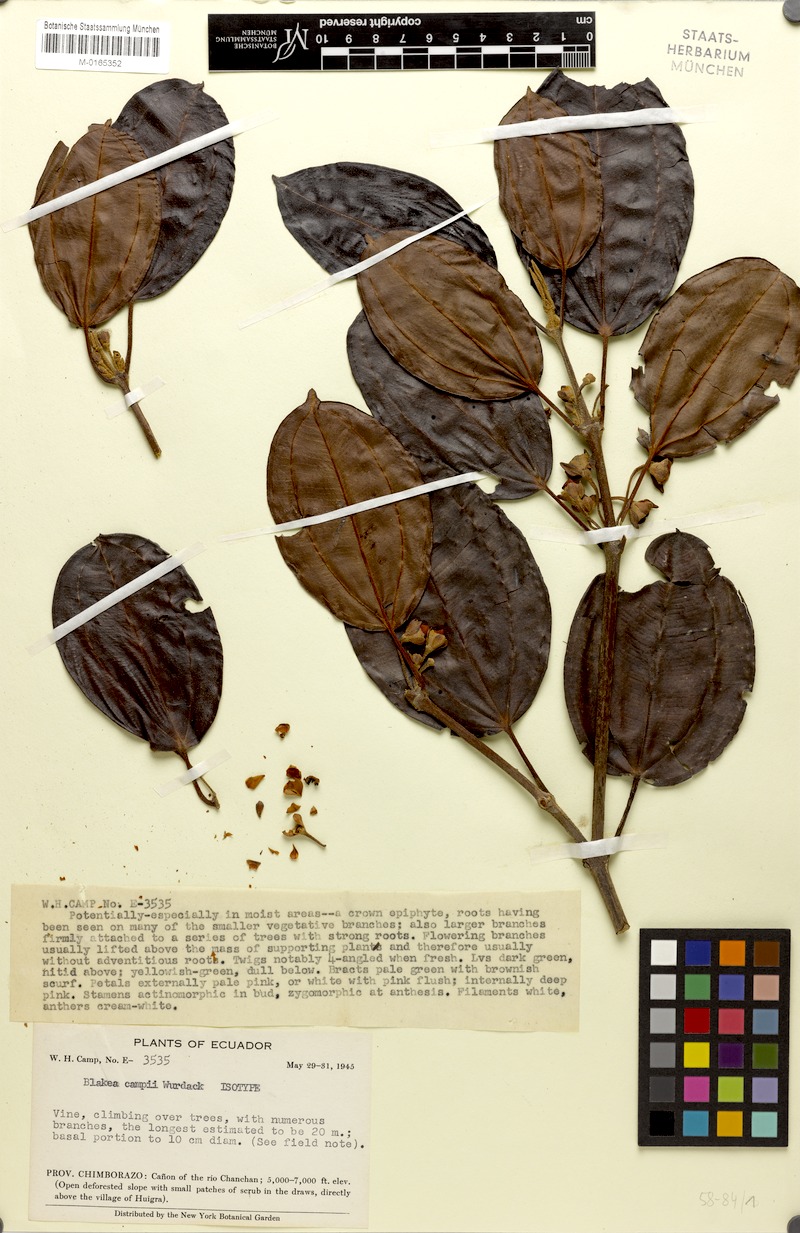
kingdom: Plantae
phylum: Tracheophyta
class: Magnoliopsida
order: Myrtales
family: Melastomataceae
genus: Blakea
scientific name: Blakea campii
